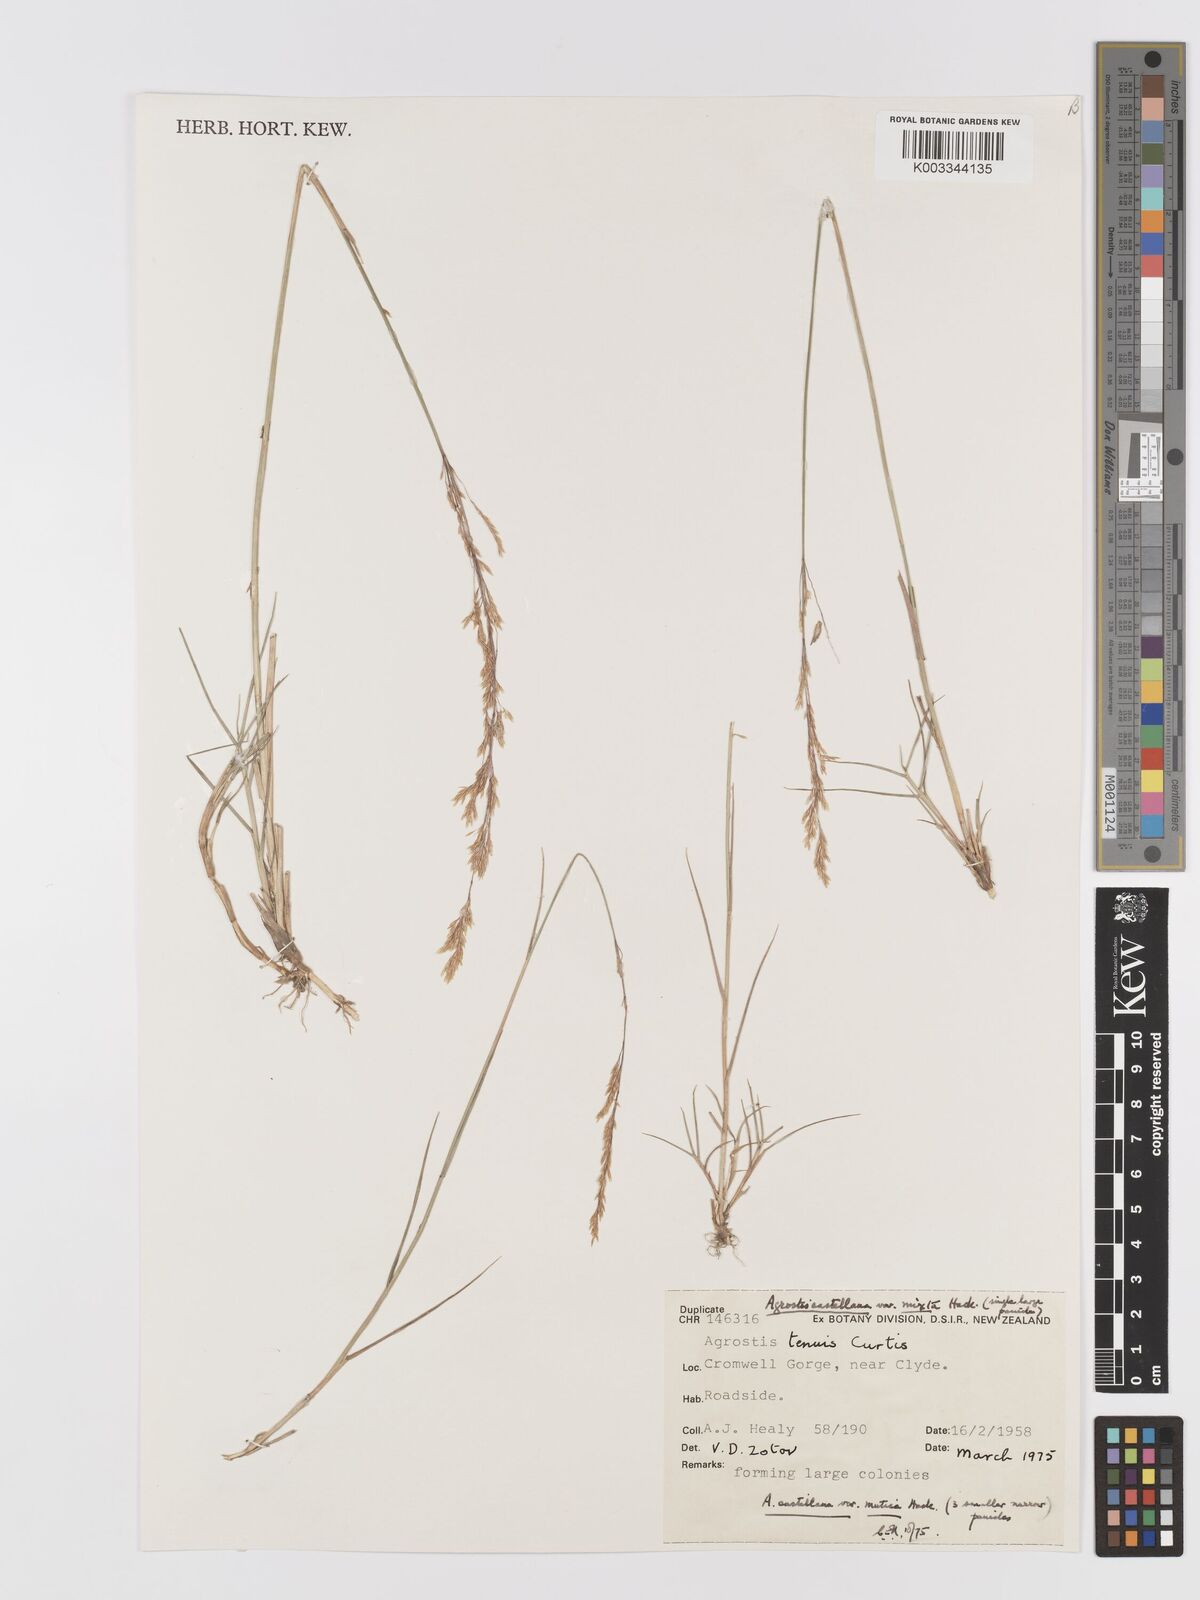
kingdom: Plantae
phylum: Tracheophyta
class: Liliopsida
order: Poales
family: Poaceae
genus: Agrostis
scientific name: Agrostis castellana
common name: Highland bent
